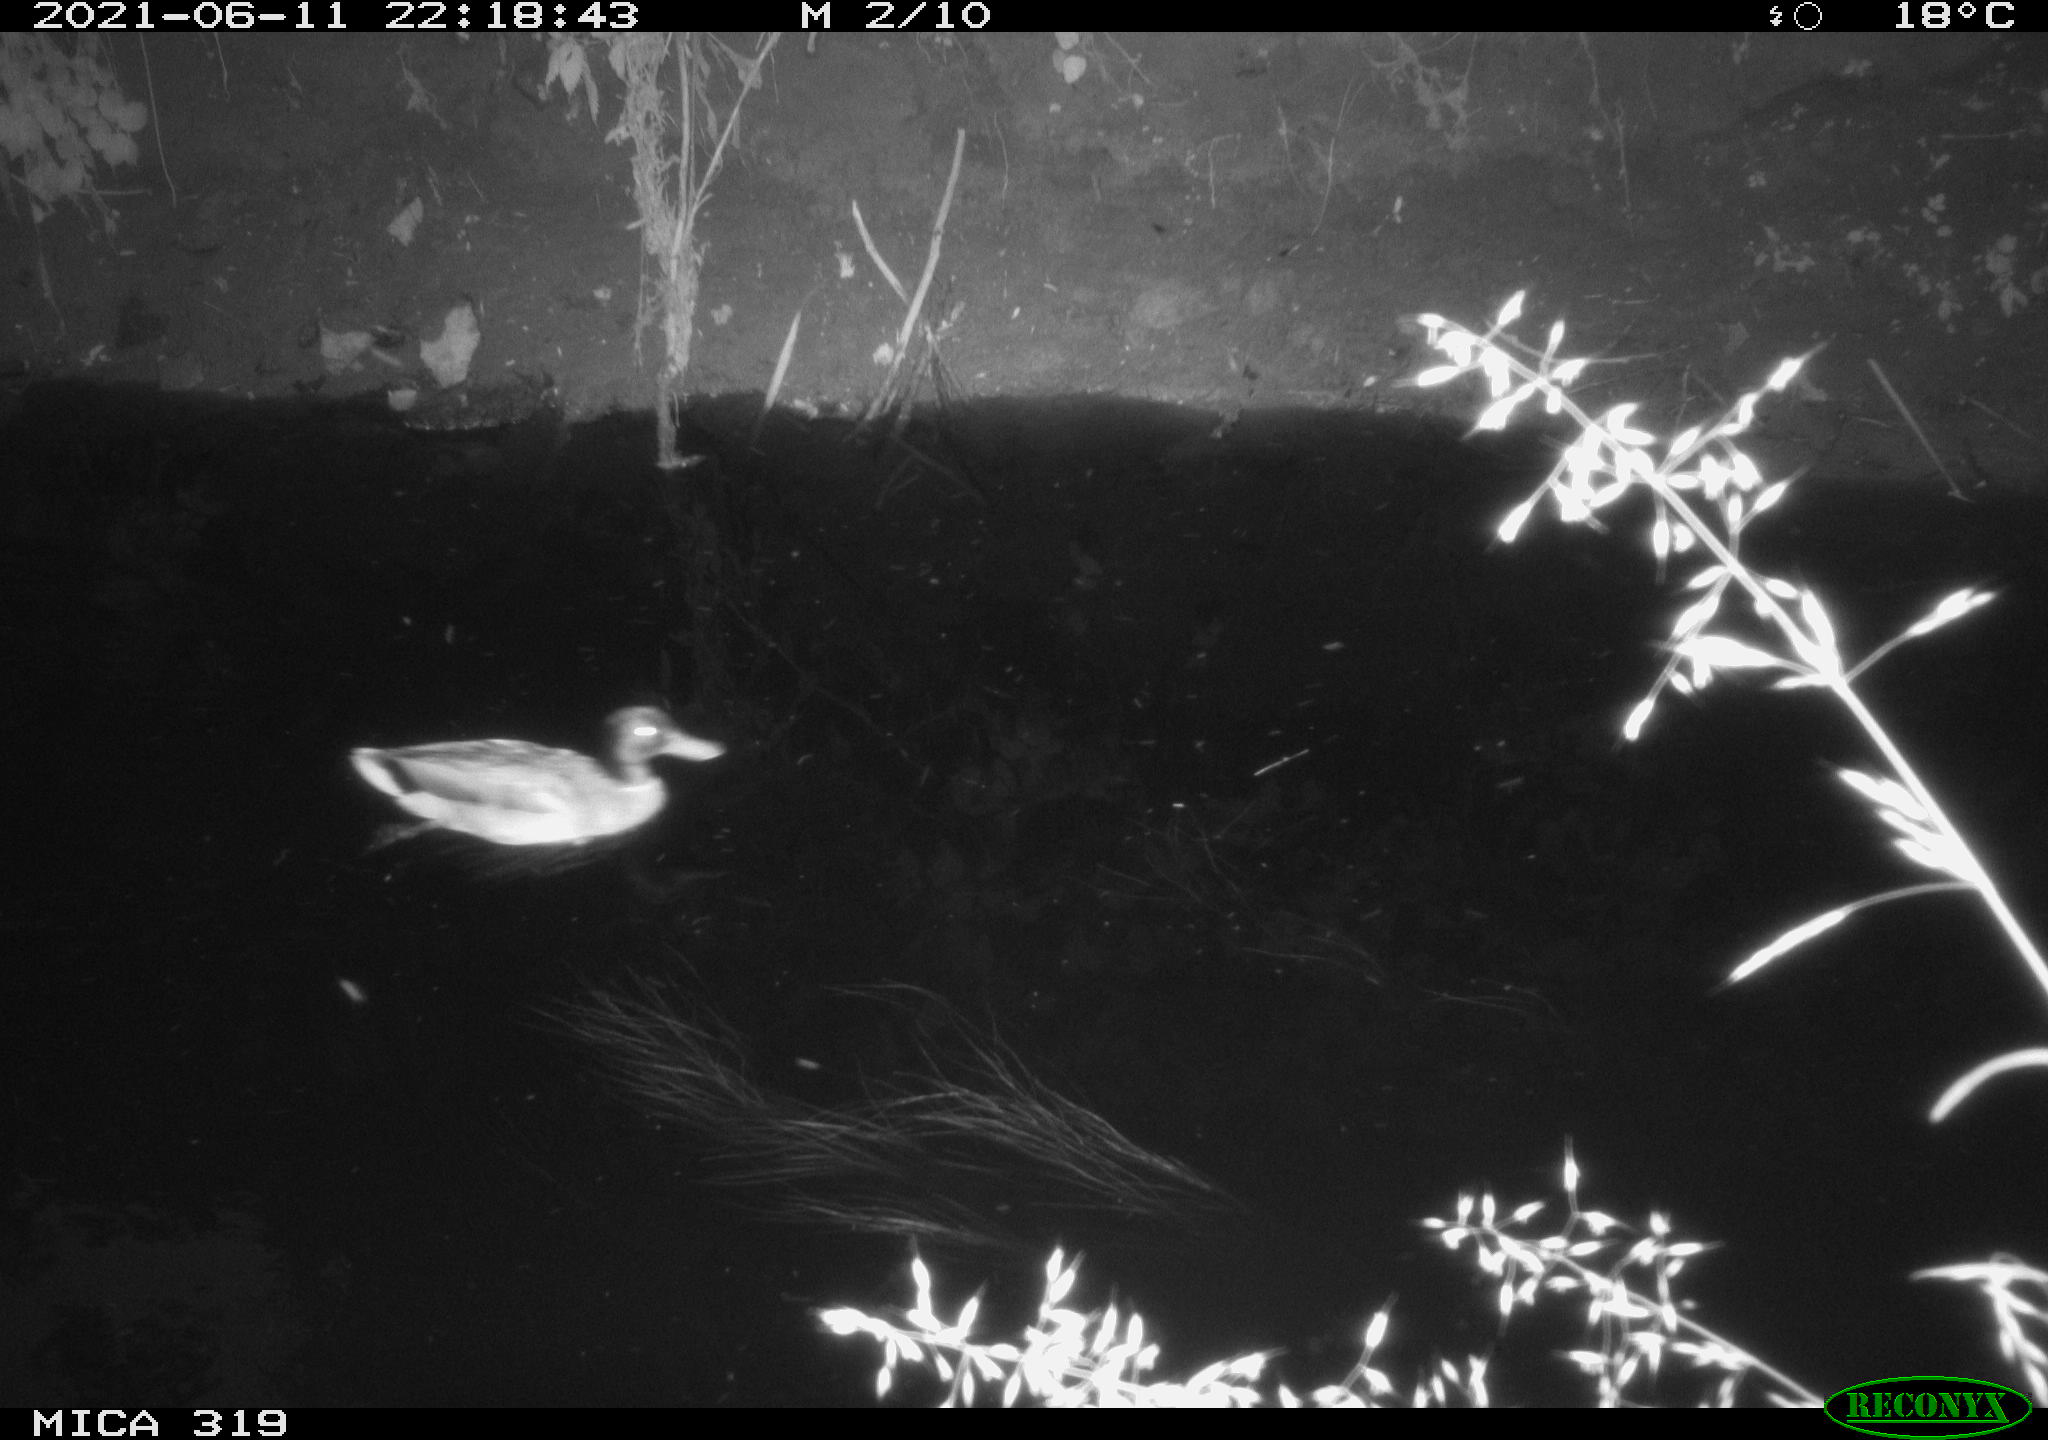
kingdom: Animalia
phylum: Chordata
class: Aves
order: Anseriformes
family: Anatidae
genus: Anas
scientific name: Anas platyrhynchos
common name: Mallard
